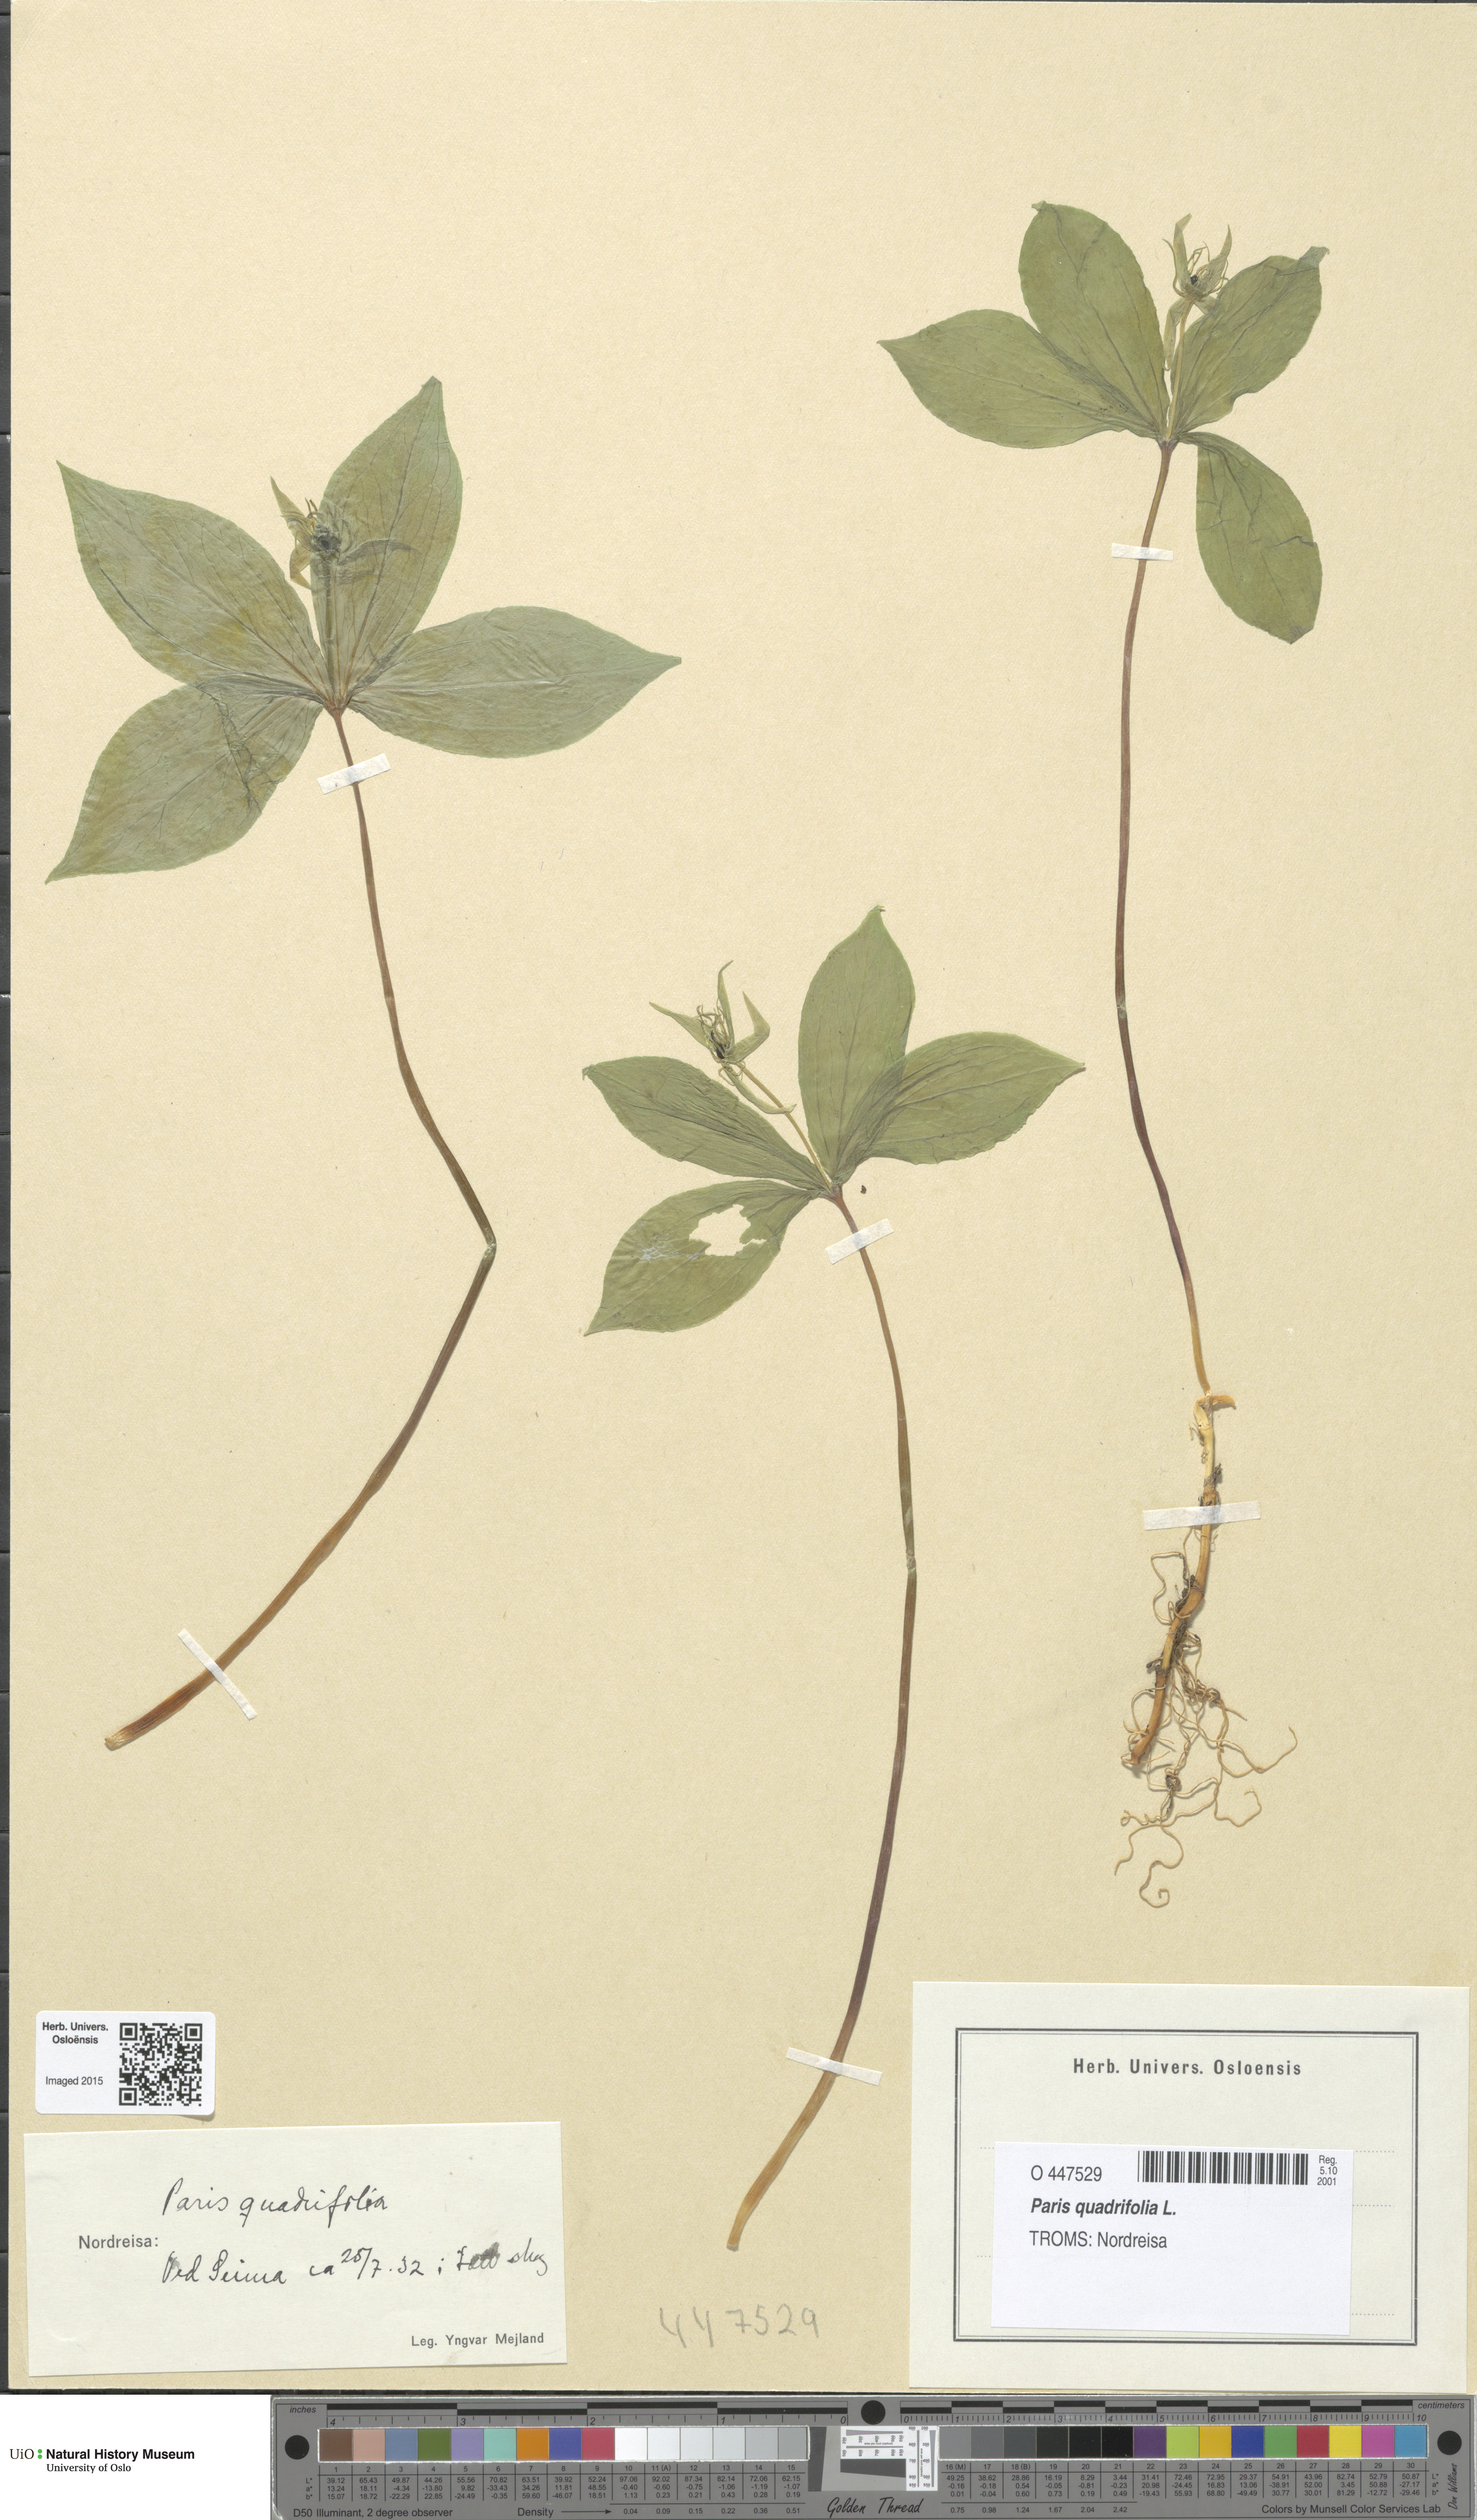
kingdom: Plantae
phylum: Tracheophyta
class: Liliopsida
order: Liliales
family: Melanthiaceae
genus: Paris
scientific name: Paris quadrifolia
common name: Herb-paris
